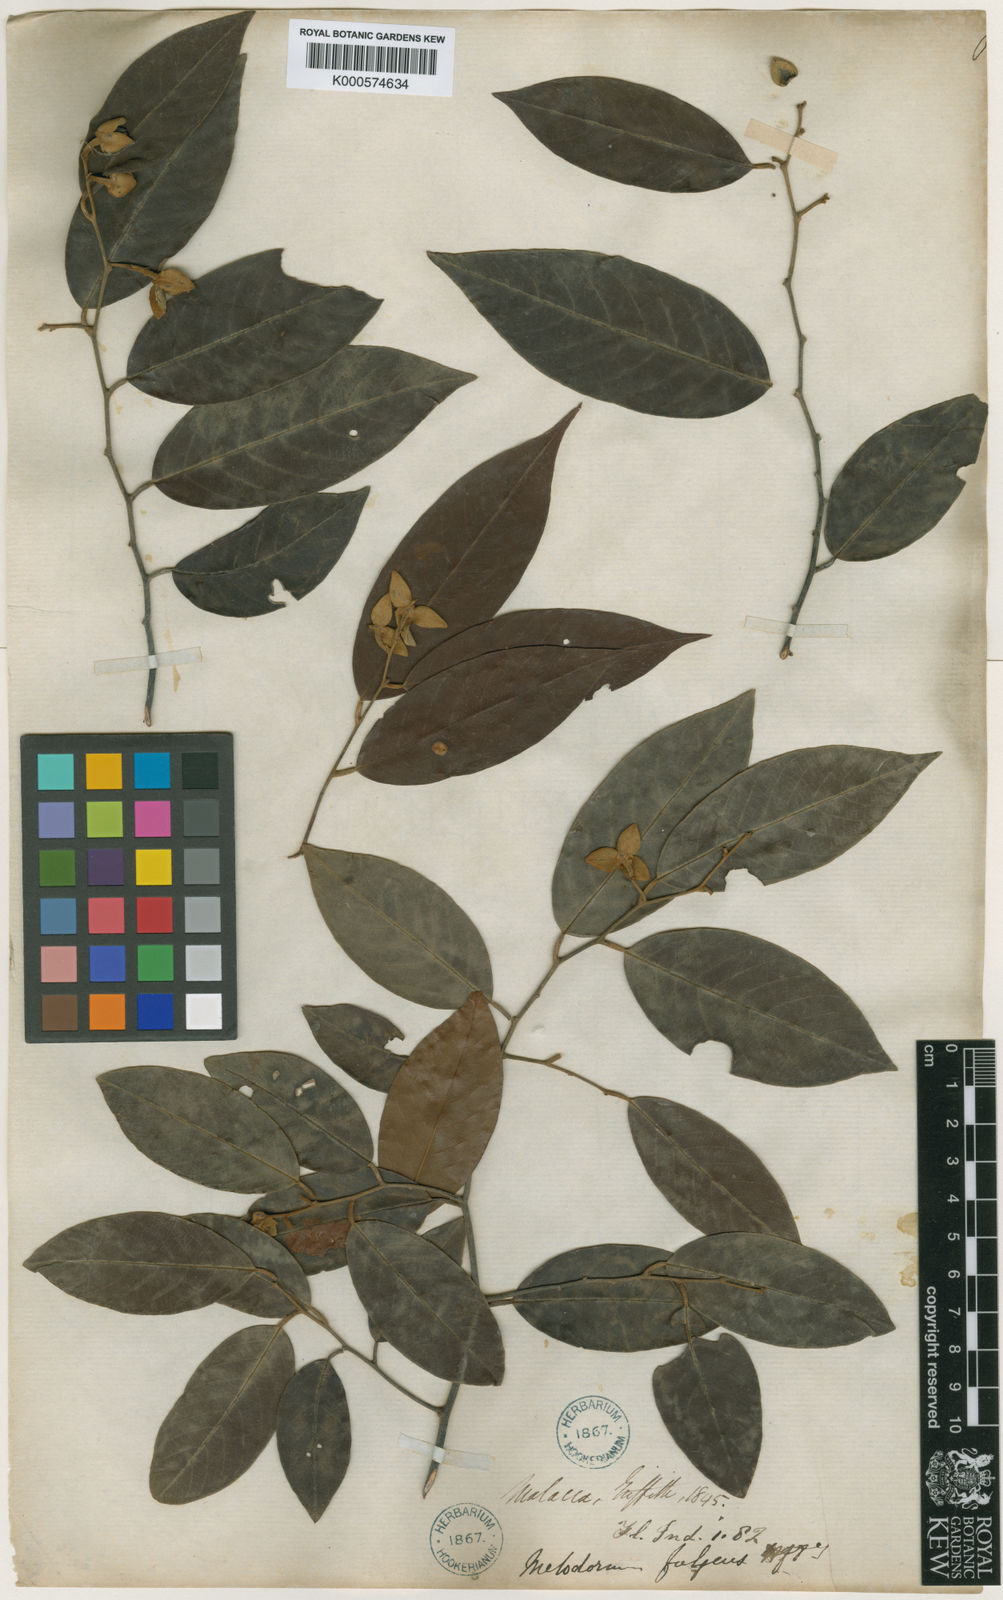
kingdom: Plantae
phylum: Tracheophyta
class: Magnoliopsida
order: Magnoliales
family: Annonaceae
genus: Fissistigma
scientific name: Fissistigma fulgens
